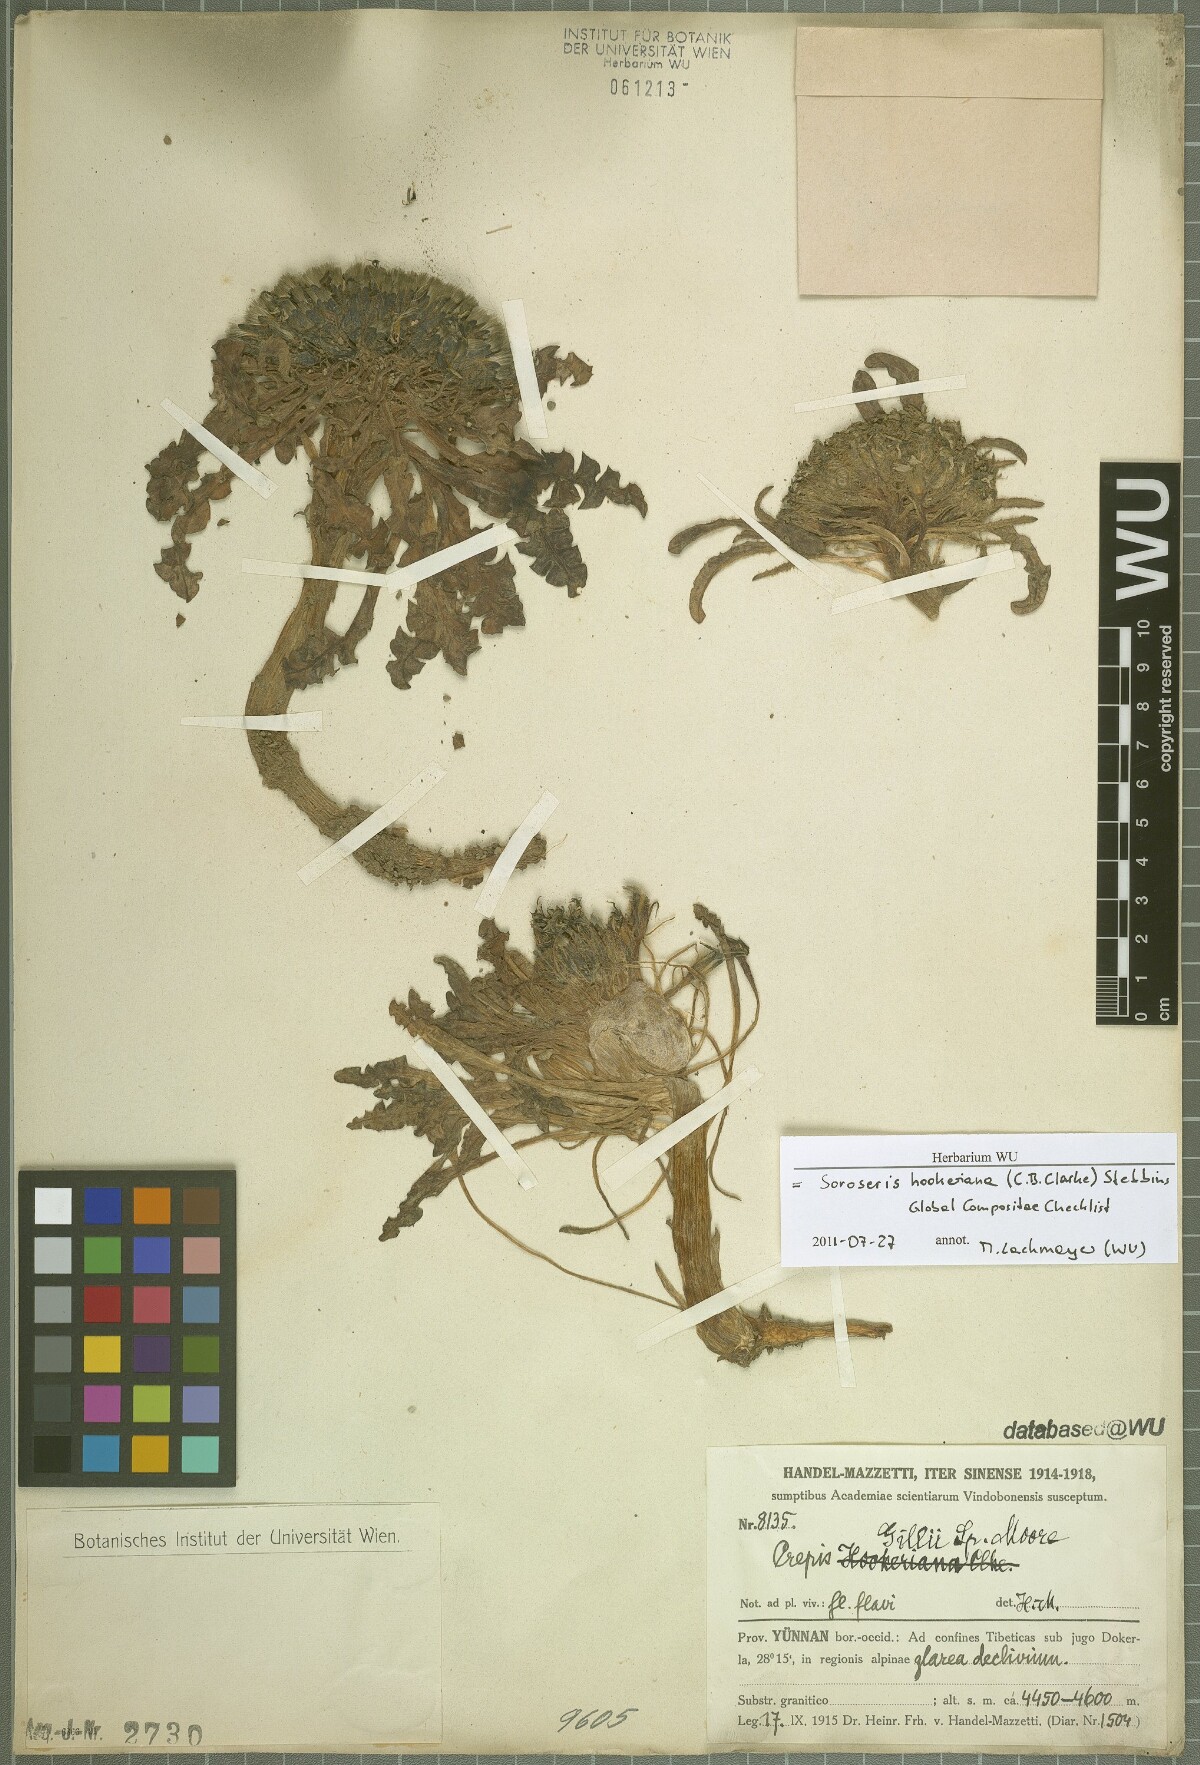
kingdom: Plantae
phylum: Tracheophyta
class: Magnoliopsida
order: Asterales
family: Asteraceae
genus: Soroseris
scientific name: Soroseris hookeriana
